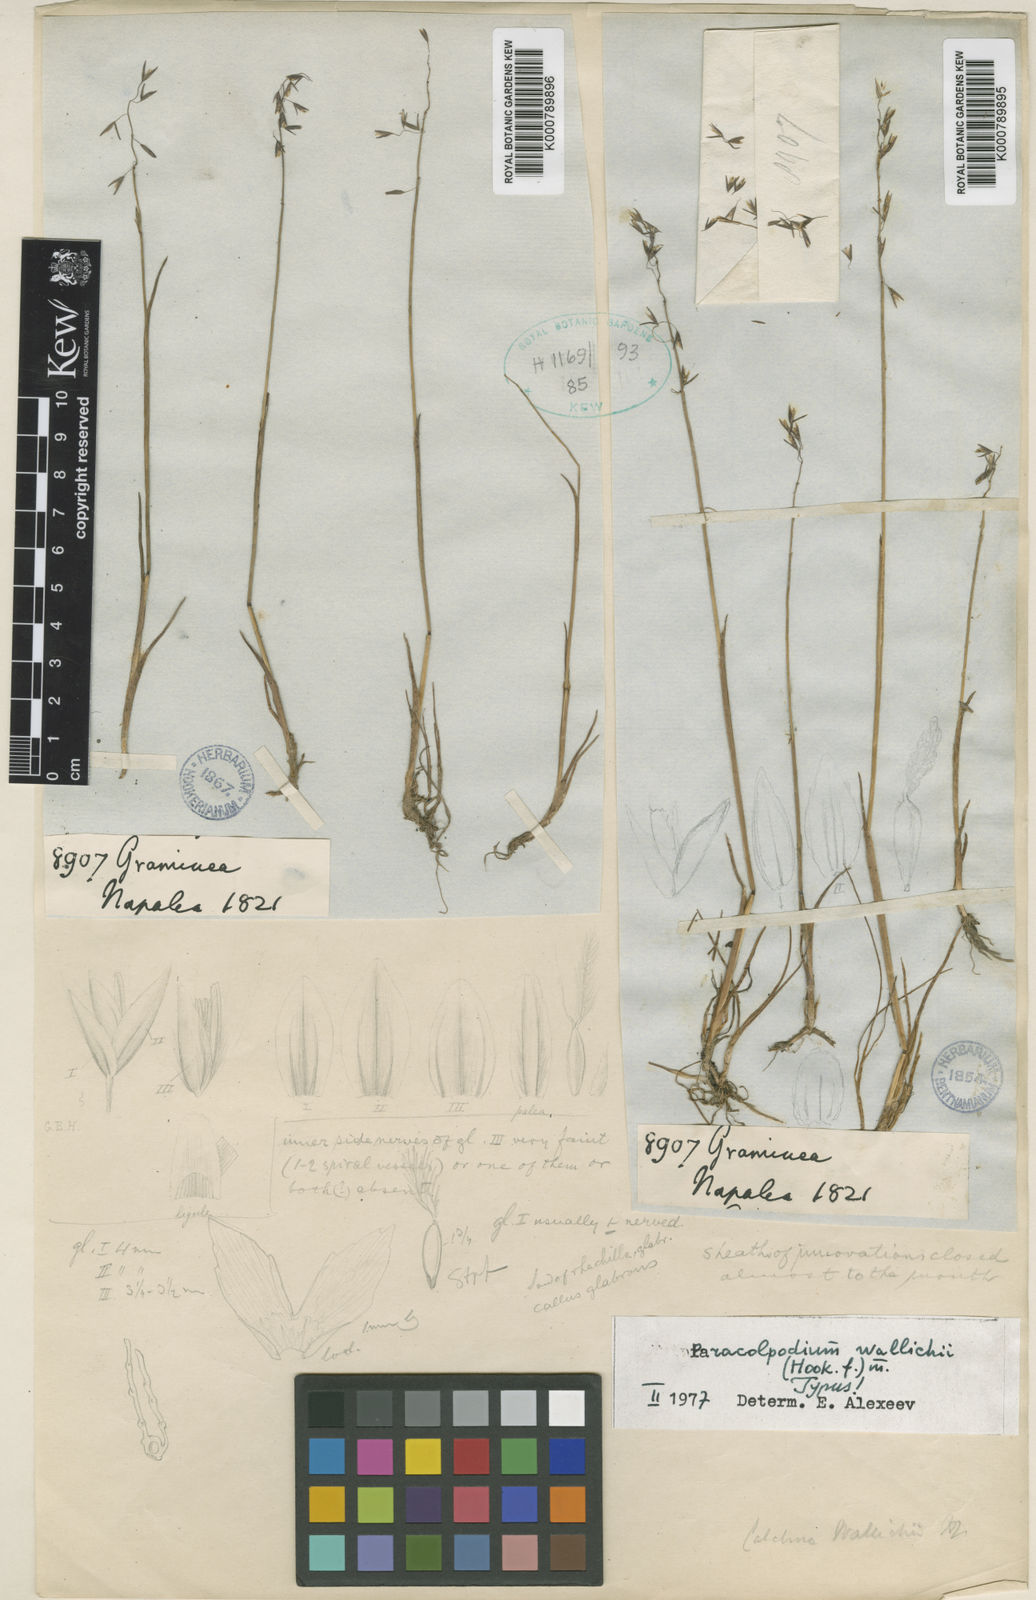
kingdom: Plantae
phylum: Tracheophyta
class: Liliopsida
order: Poales
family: Poaceae
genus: Paracolpodium
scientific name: Paracolpodium wallichii
